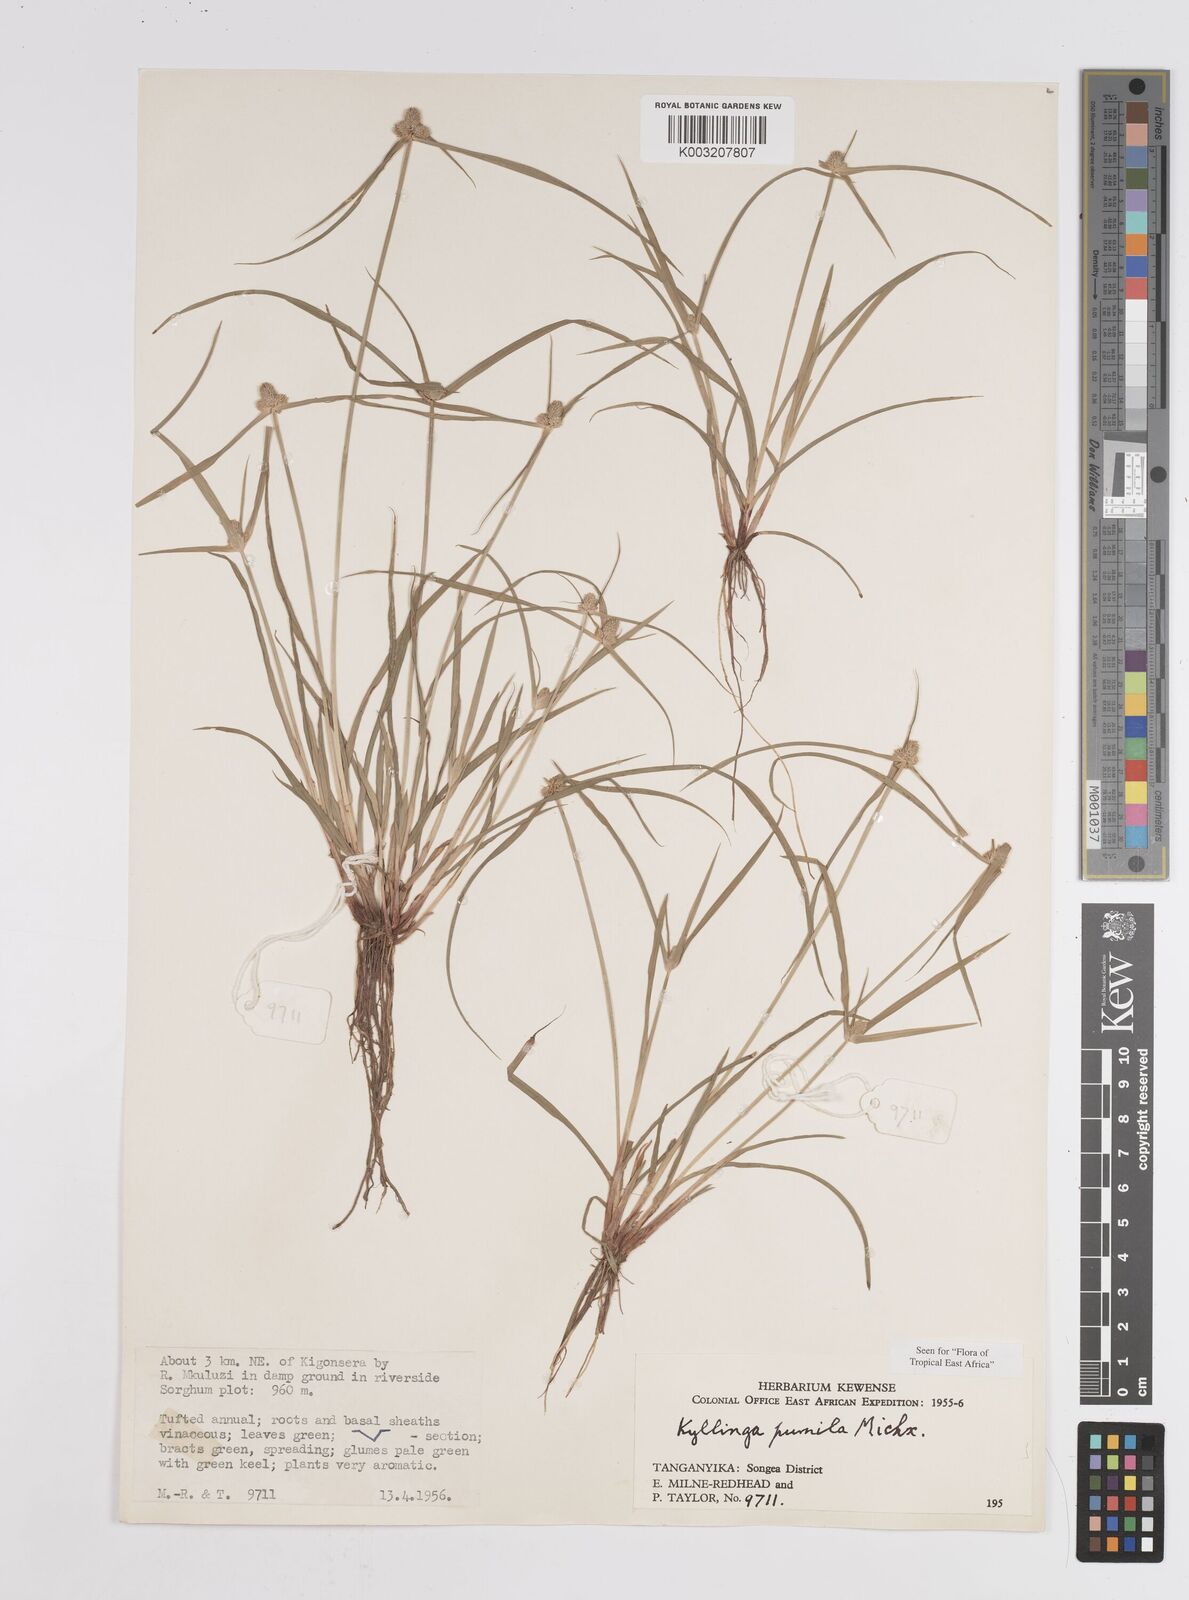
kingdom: Plantae
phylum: Tracheophyta
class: Liliopsida
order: Poales
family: Cyperaceae
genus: Cyperus
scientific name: Cyperus hortensis
